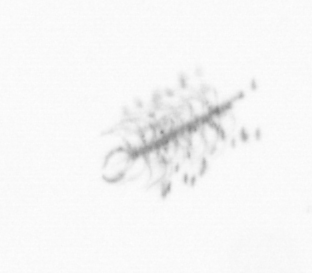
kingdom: Chromista
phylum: Ochrophyta
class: Bacillariophyceae
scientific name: Bacillariophyceae
